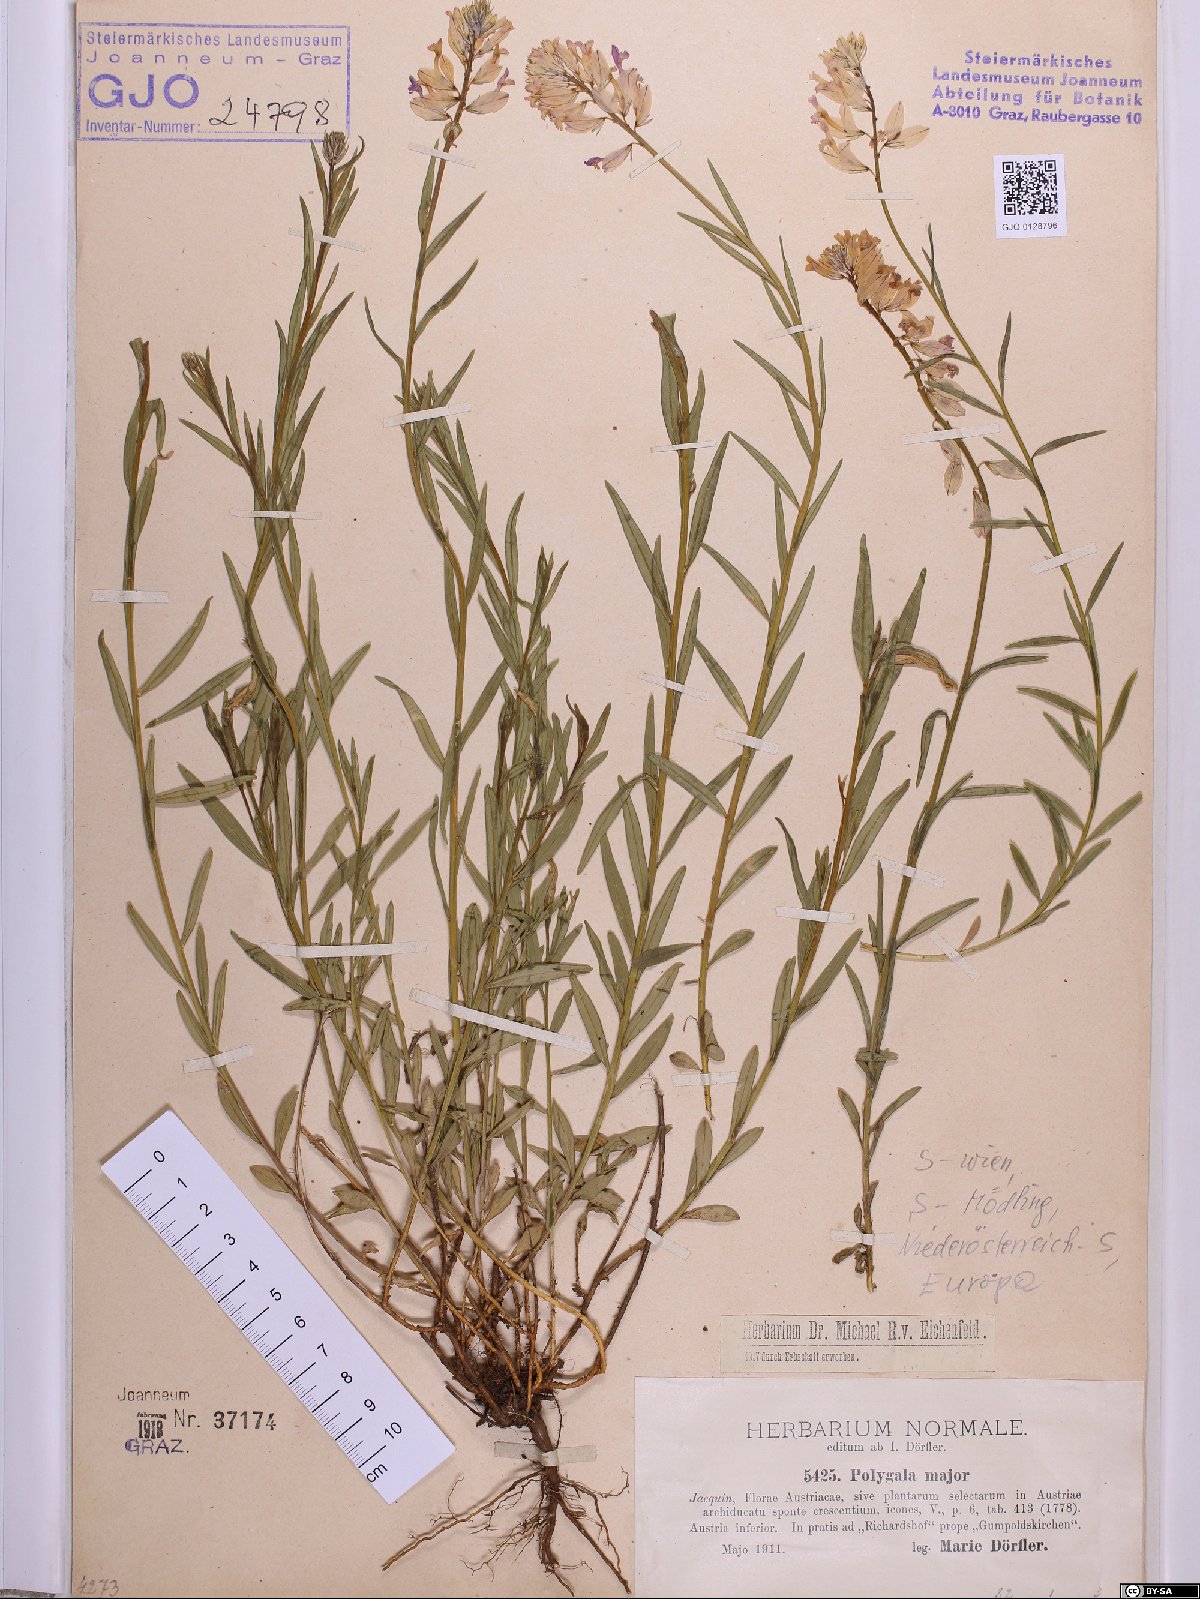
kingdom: Plantae
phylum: Tracheophyta
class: Magnoliopsida
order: Fabales
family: Polygalaceae
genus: Polygala
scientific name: Polygala major
